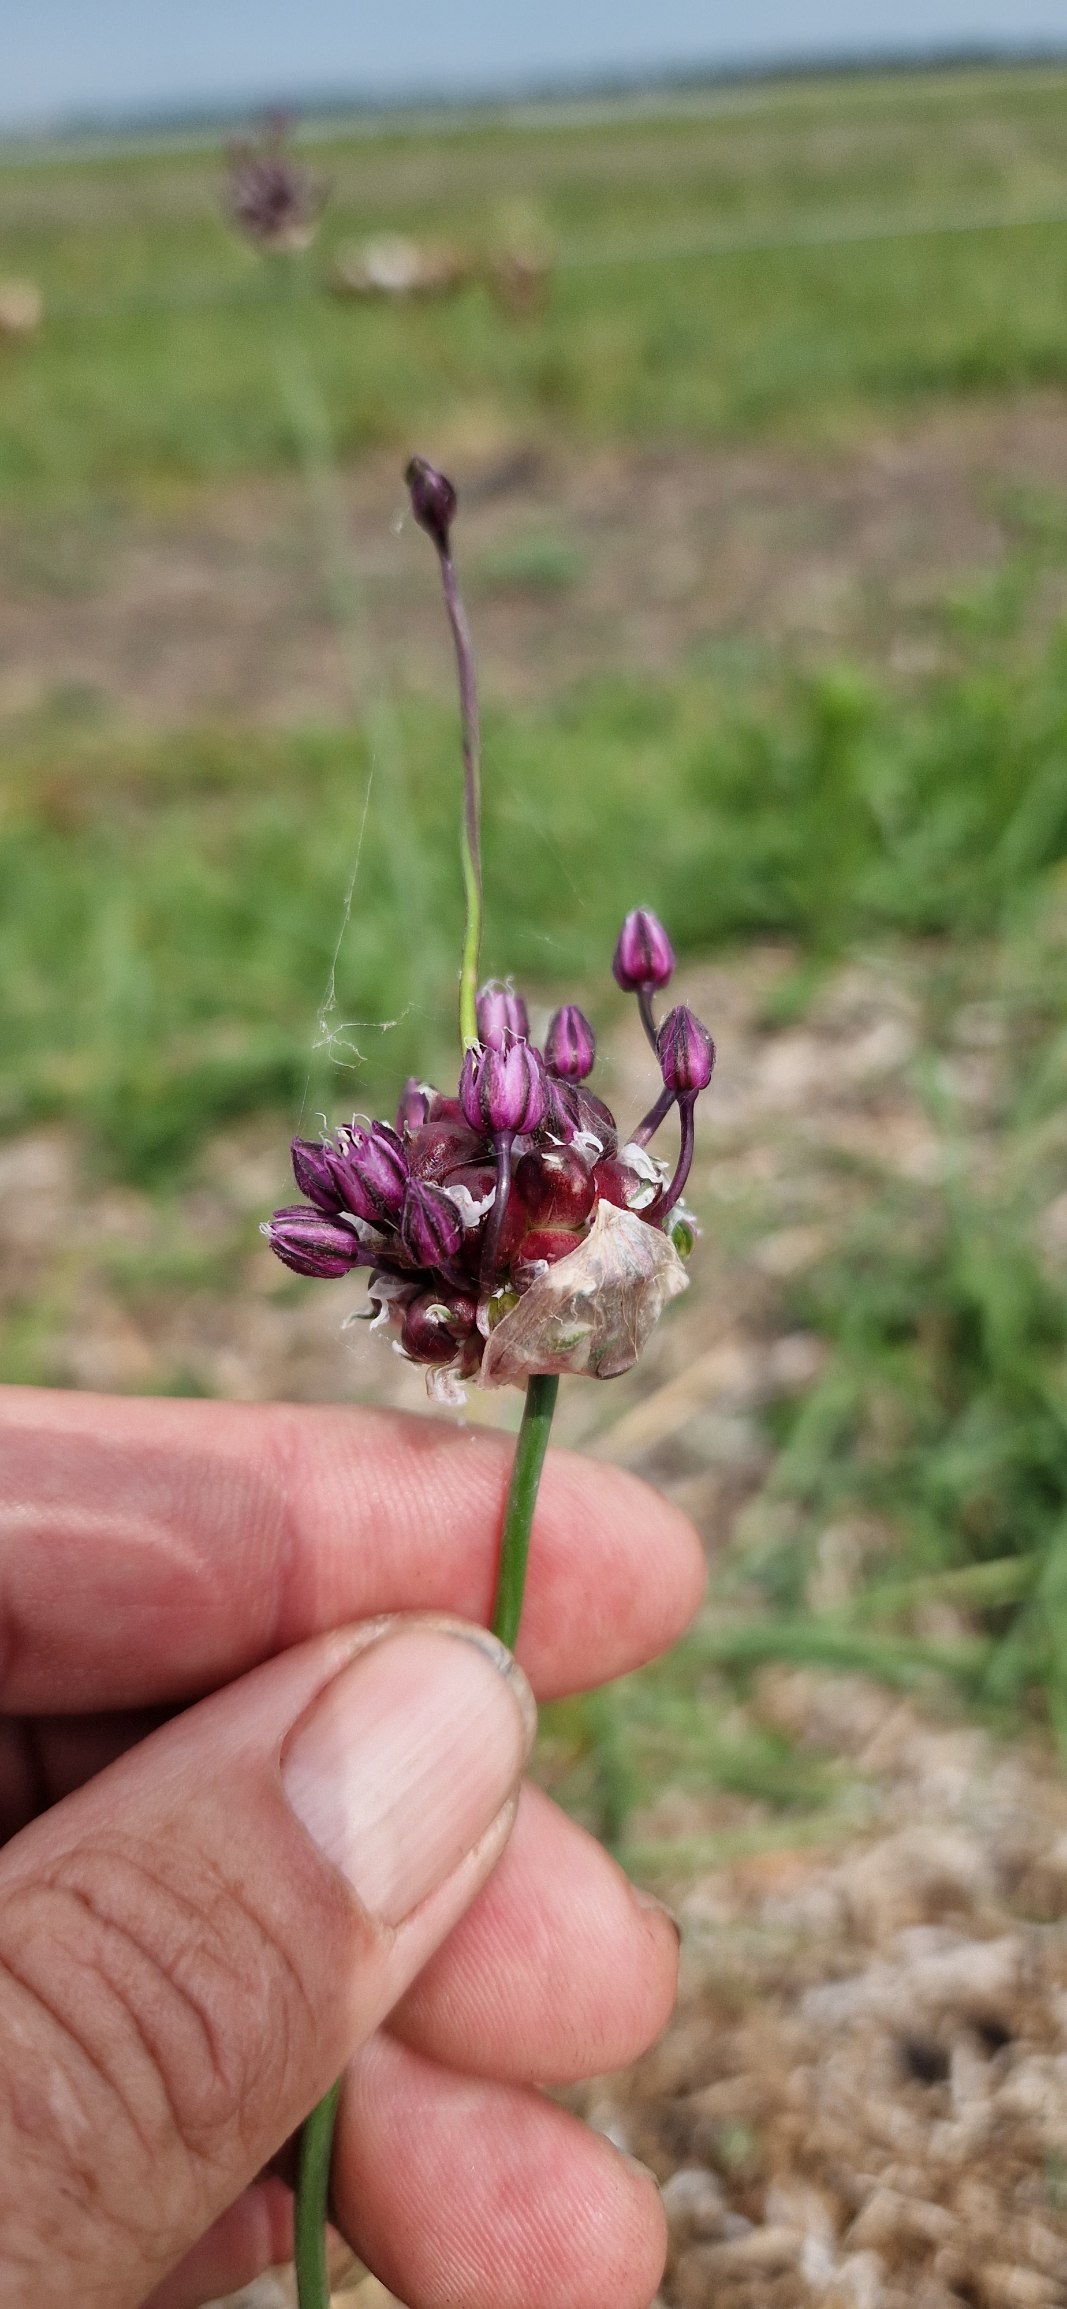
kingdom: Plantae
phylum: Tracheophyta
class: Liliopsida
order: Asparagales
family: Amaryllidaceae
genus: Allium
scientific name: Allium scorodoprasum
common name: Skov-løg
